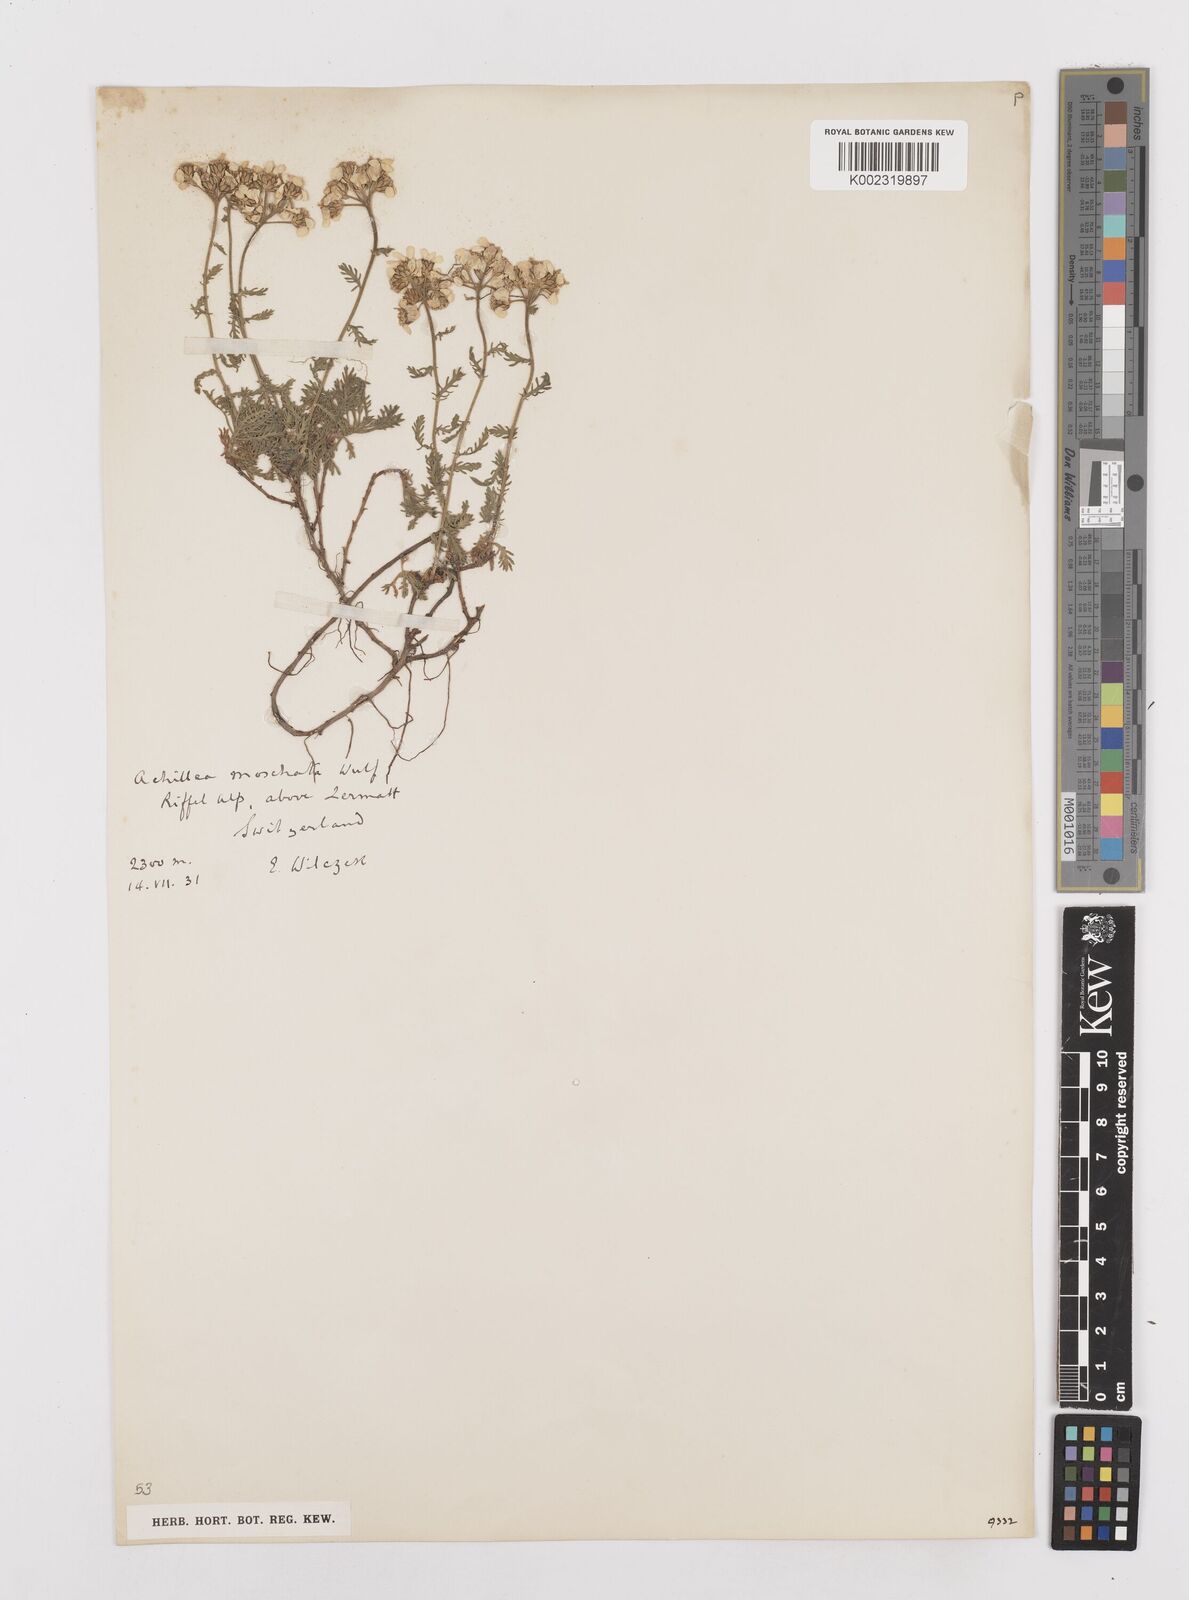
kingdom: Plantae
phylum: Tracheophyta
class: Magnoliopsida
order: Asterales
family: Asteraceae
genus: Achillea
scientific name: Achillea erba-rotta
